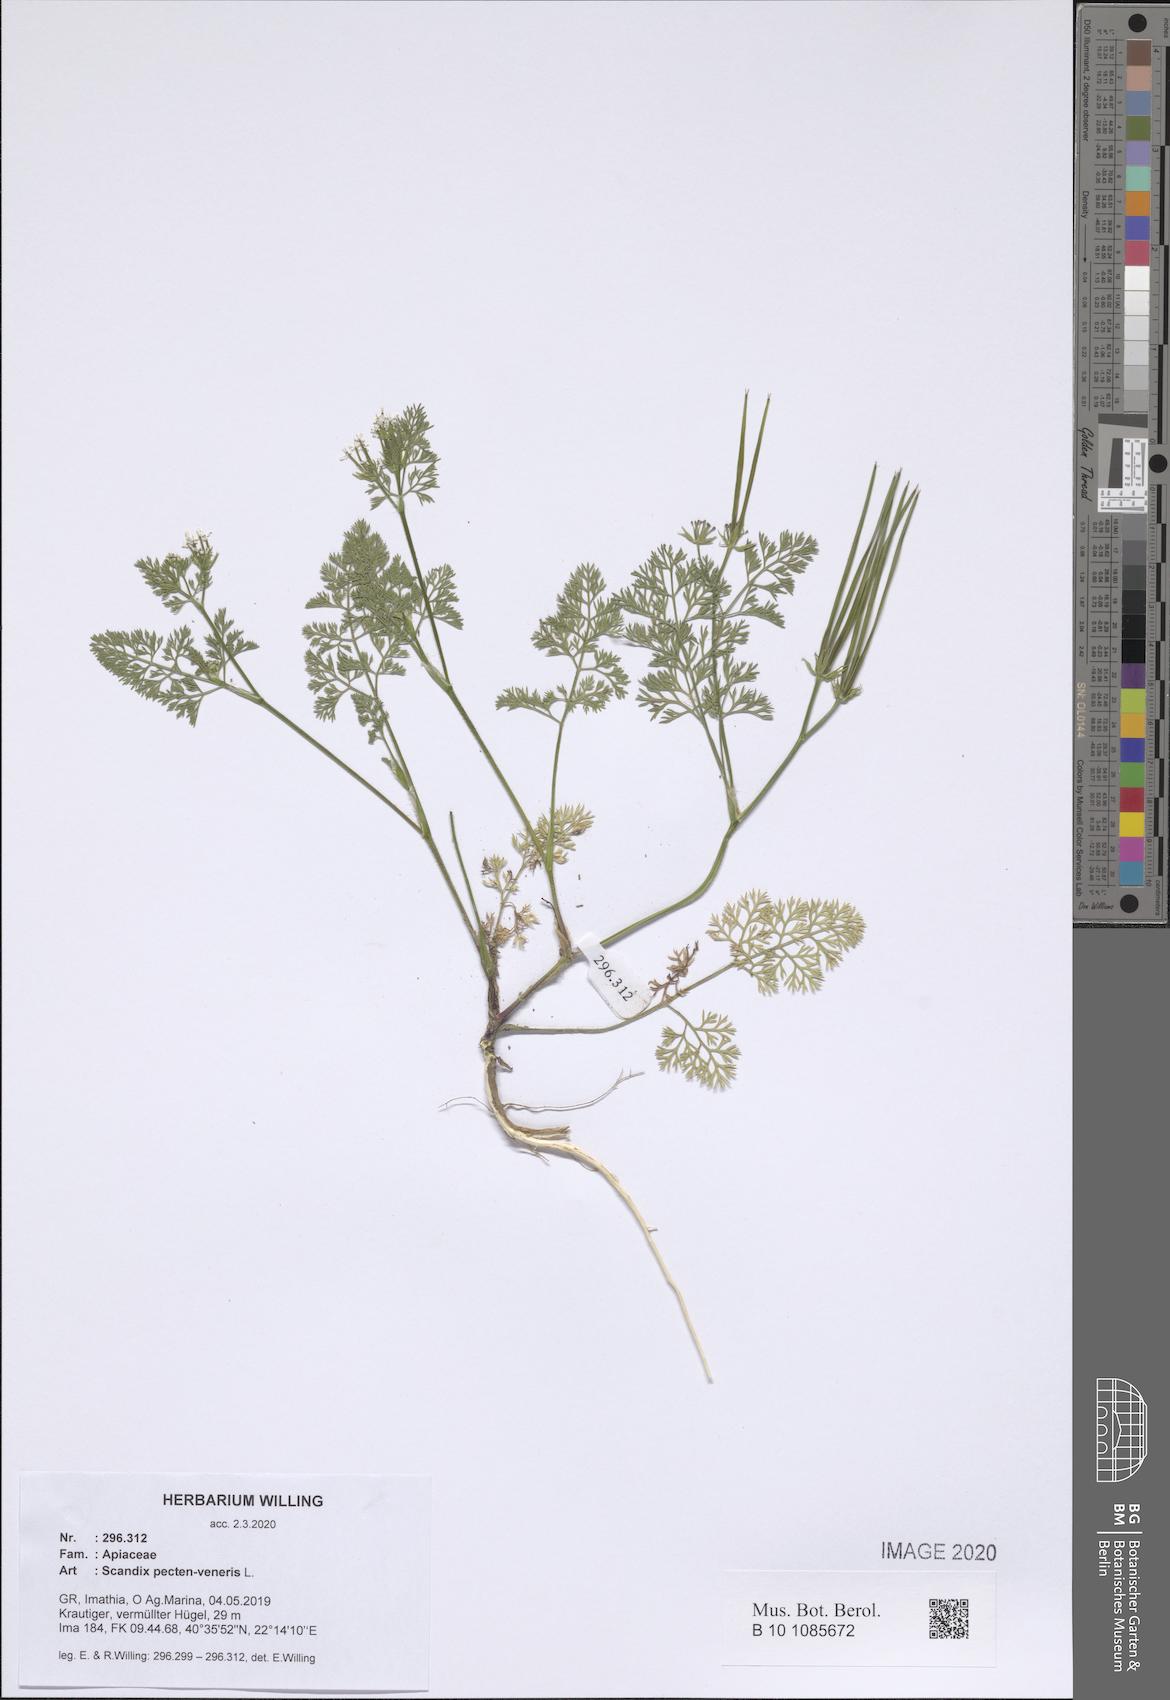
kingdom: Plantae
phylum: Tracheophyta
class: Magnoliopsida
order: Apiales
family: Apiaceae
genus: Scandix
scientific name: Scandix pecten-veneris
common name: Shepherd's-needle
